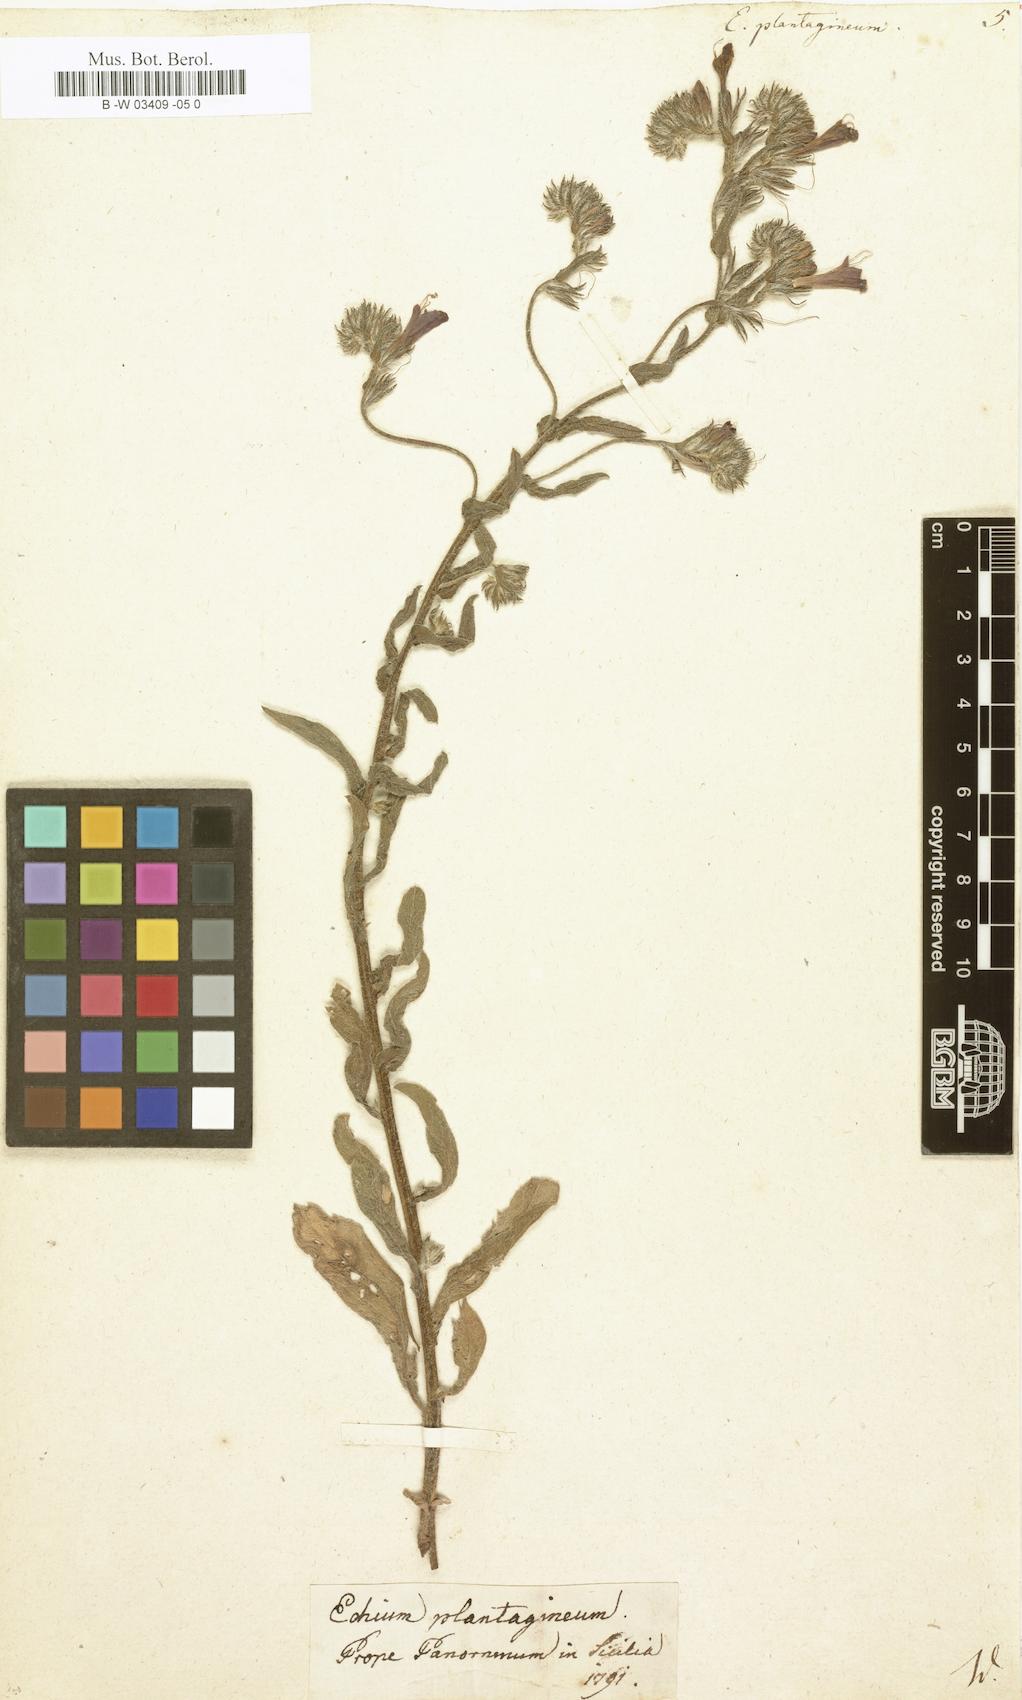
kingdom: Plantae
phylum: Tracheophyta
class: Magnoliopsida
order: Boraginales
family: Boraginaceae
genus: Echium
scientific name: Echium plantagineum
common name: Purple viper's-bugloss
